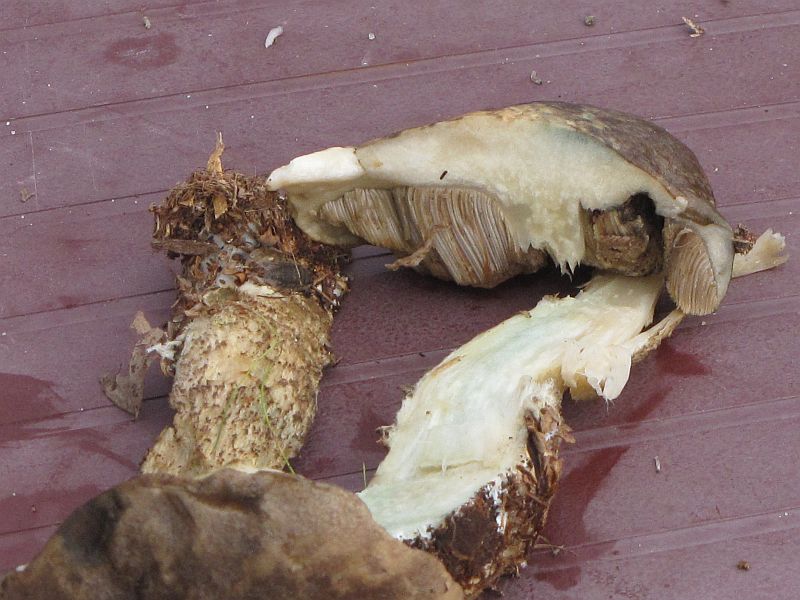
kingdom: Fungi
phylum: Basidiomycota
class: Agaricomycetes
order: Boletales
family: Boletaceae
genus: Leccinum
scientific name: Leccinum variicolor
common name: flammet skælrørhat
